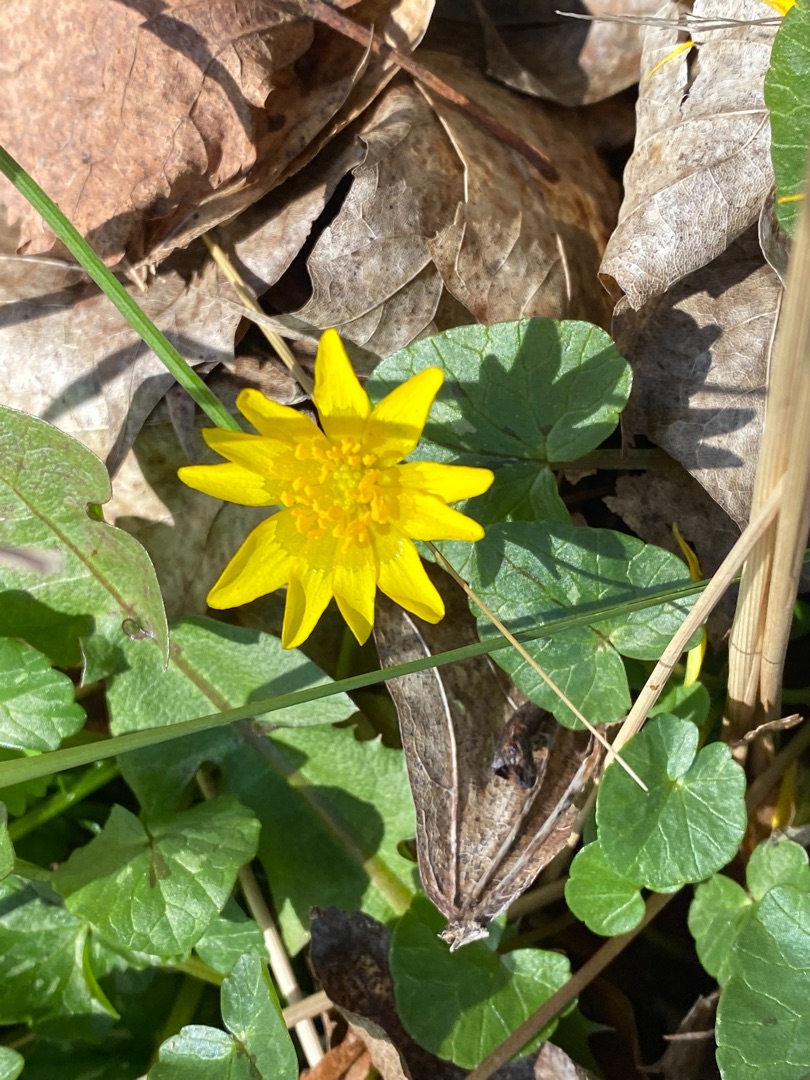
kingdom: Plantae
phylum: Tracheophyta
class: Magnoliopsida
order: Ranunculales
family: Ranunculaceae
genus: Ficaria
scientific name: Ficaria verna
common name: Vorterod
